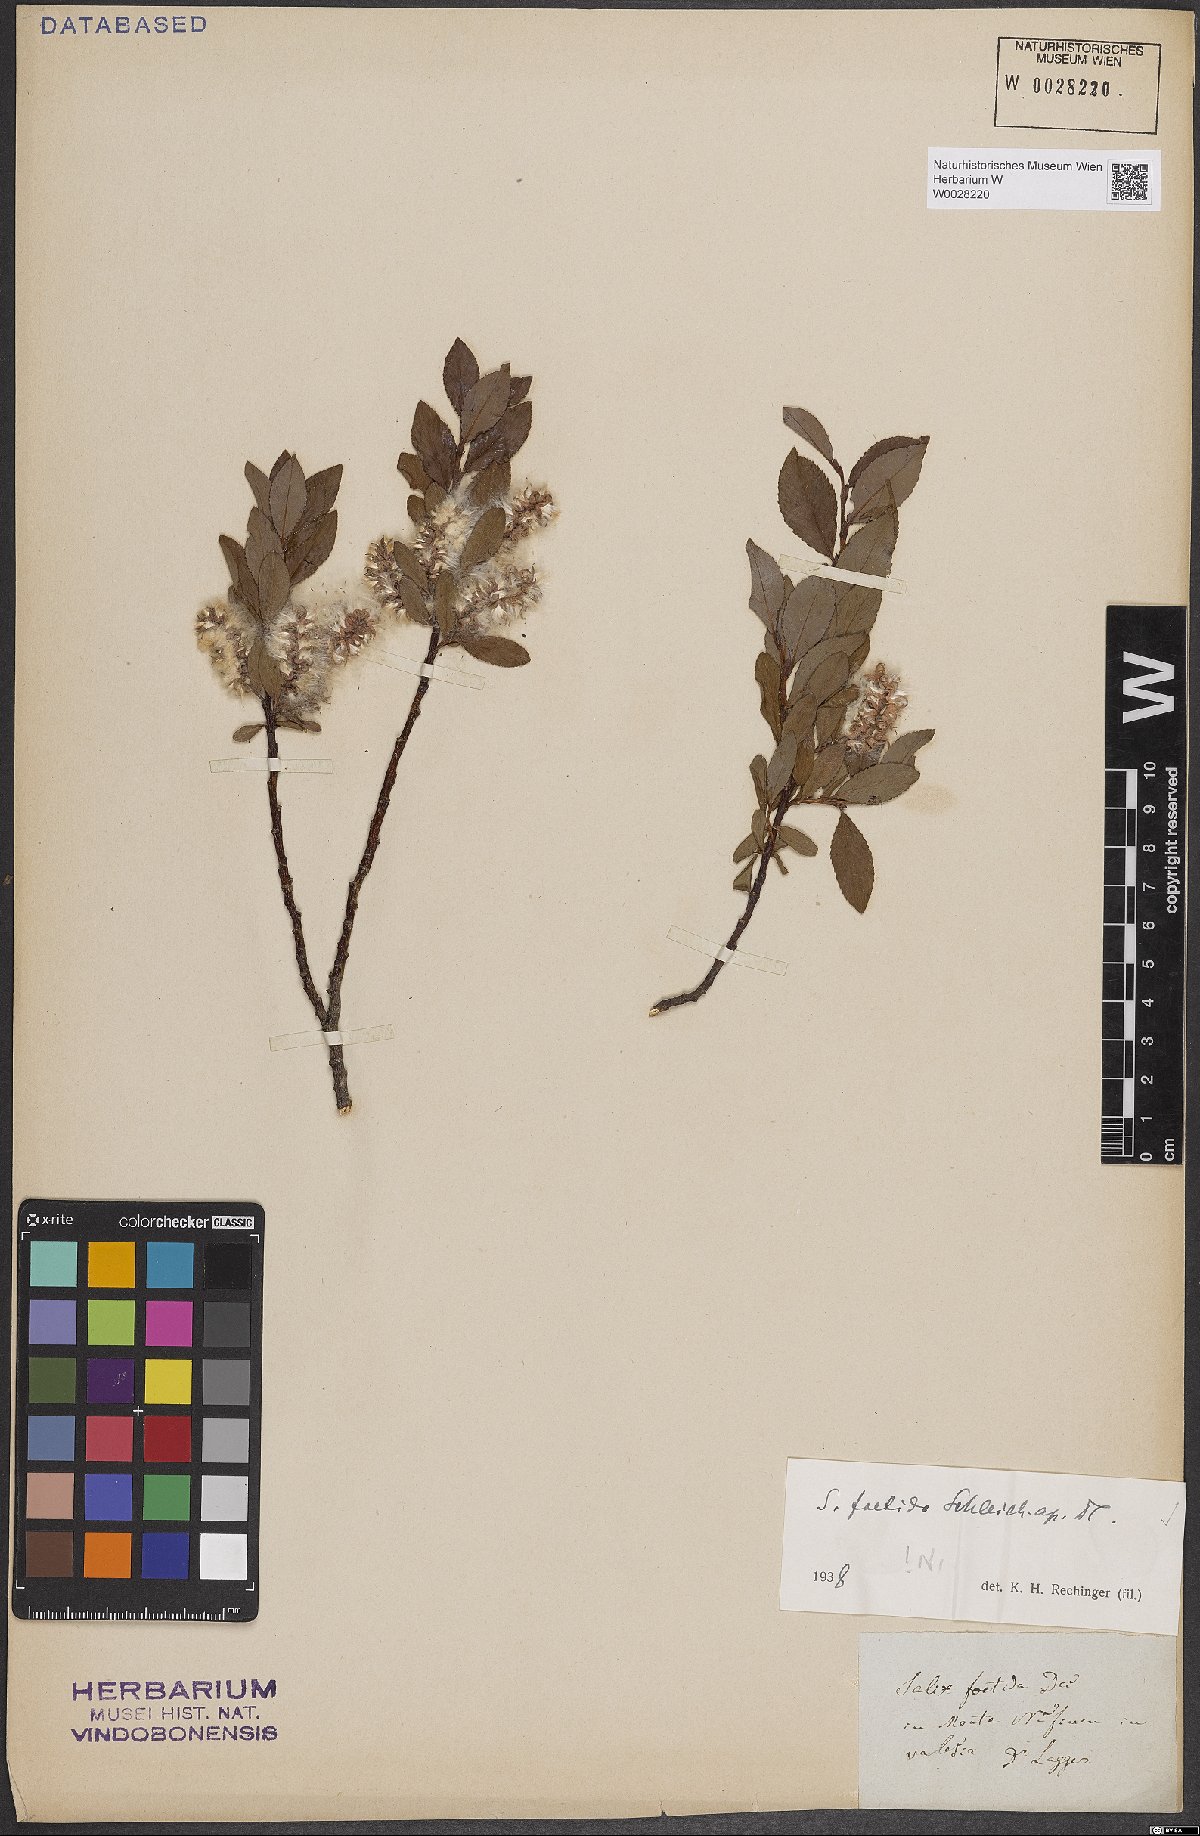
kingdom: Plantae
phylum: Tracheophyta
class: Magnoliopsida
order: Malpighiales
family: Salicaceae
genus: Salix
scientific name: Salix foetida
